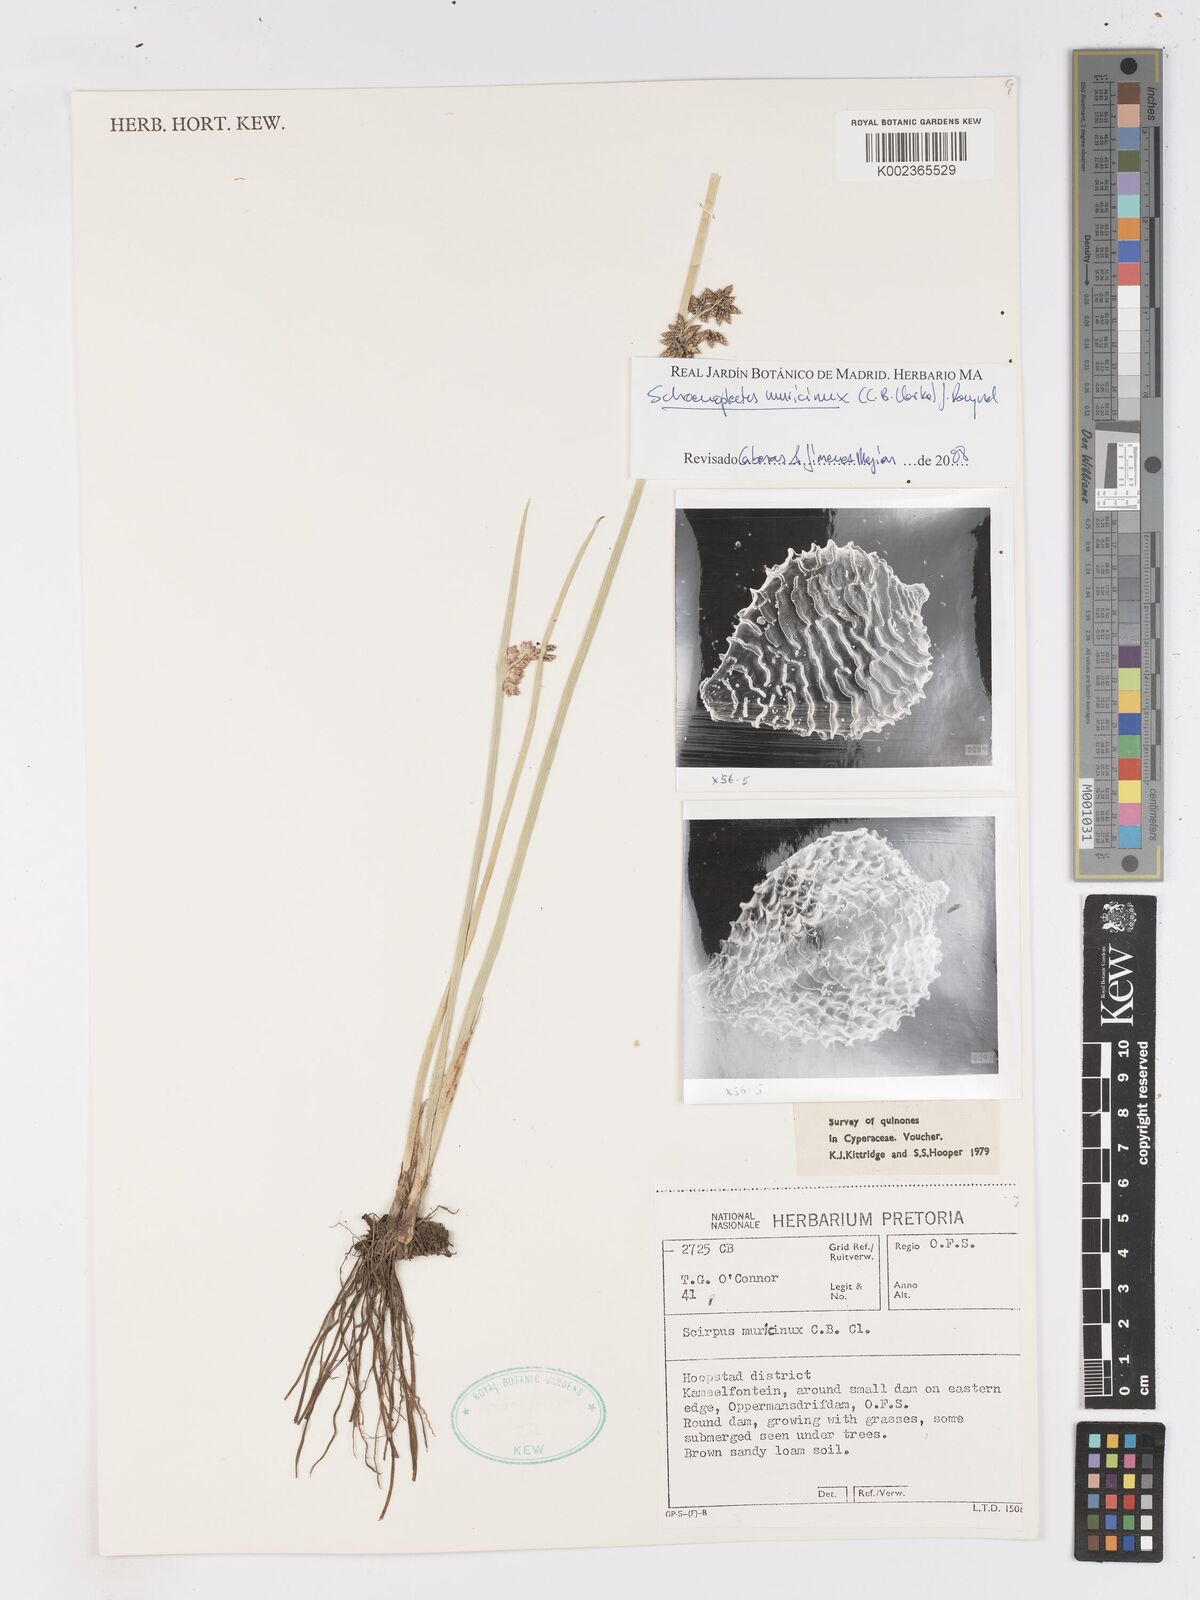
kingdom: Plantae
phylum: Tracheophyta
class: Liliopsida
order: Poales
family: Cyperaceae
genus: Schoenoplectiella
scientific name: Schoenoplectiella muricinux
